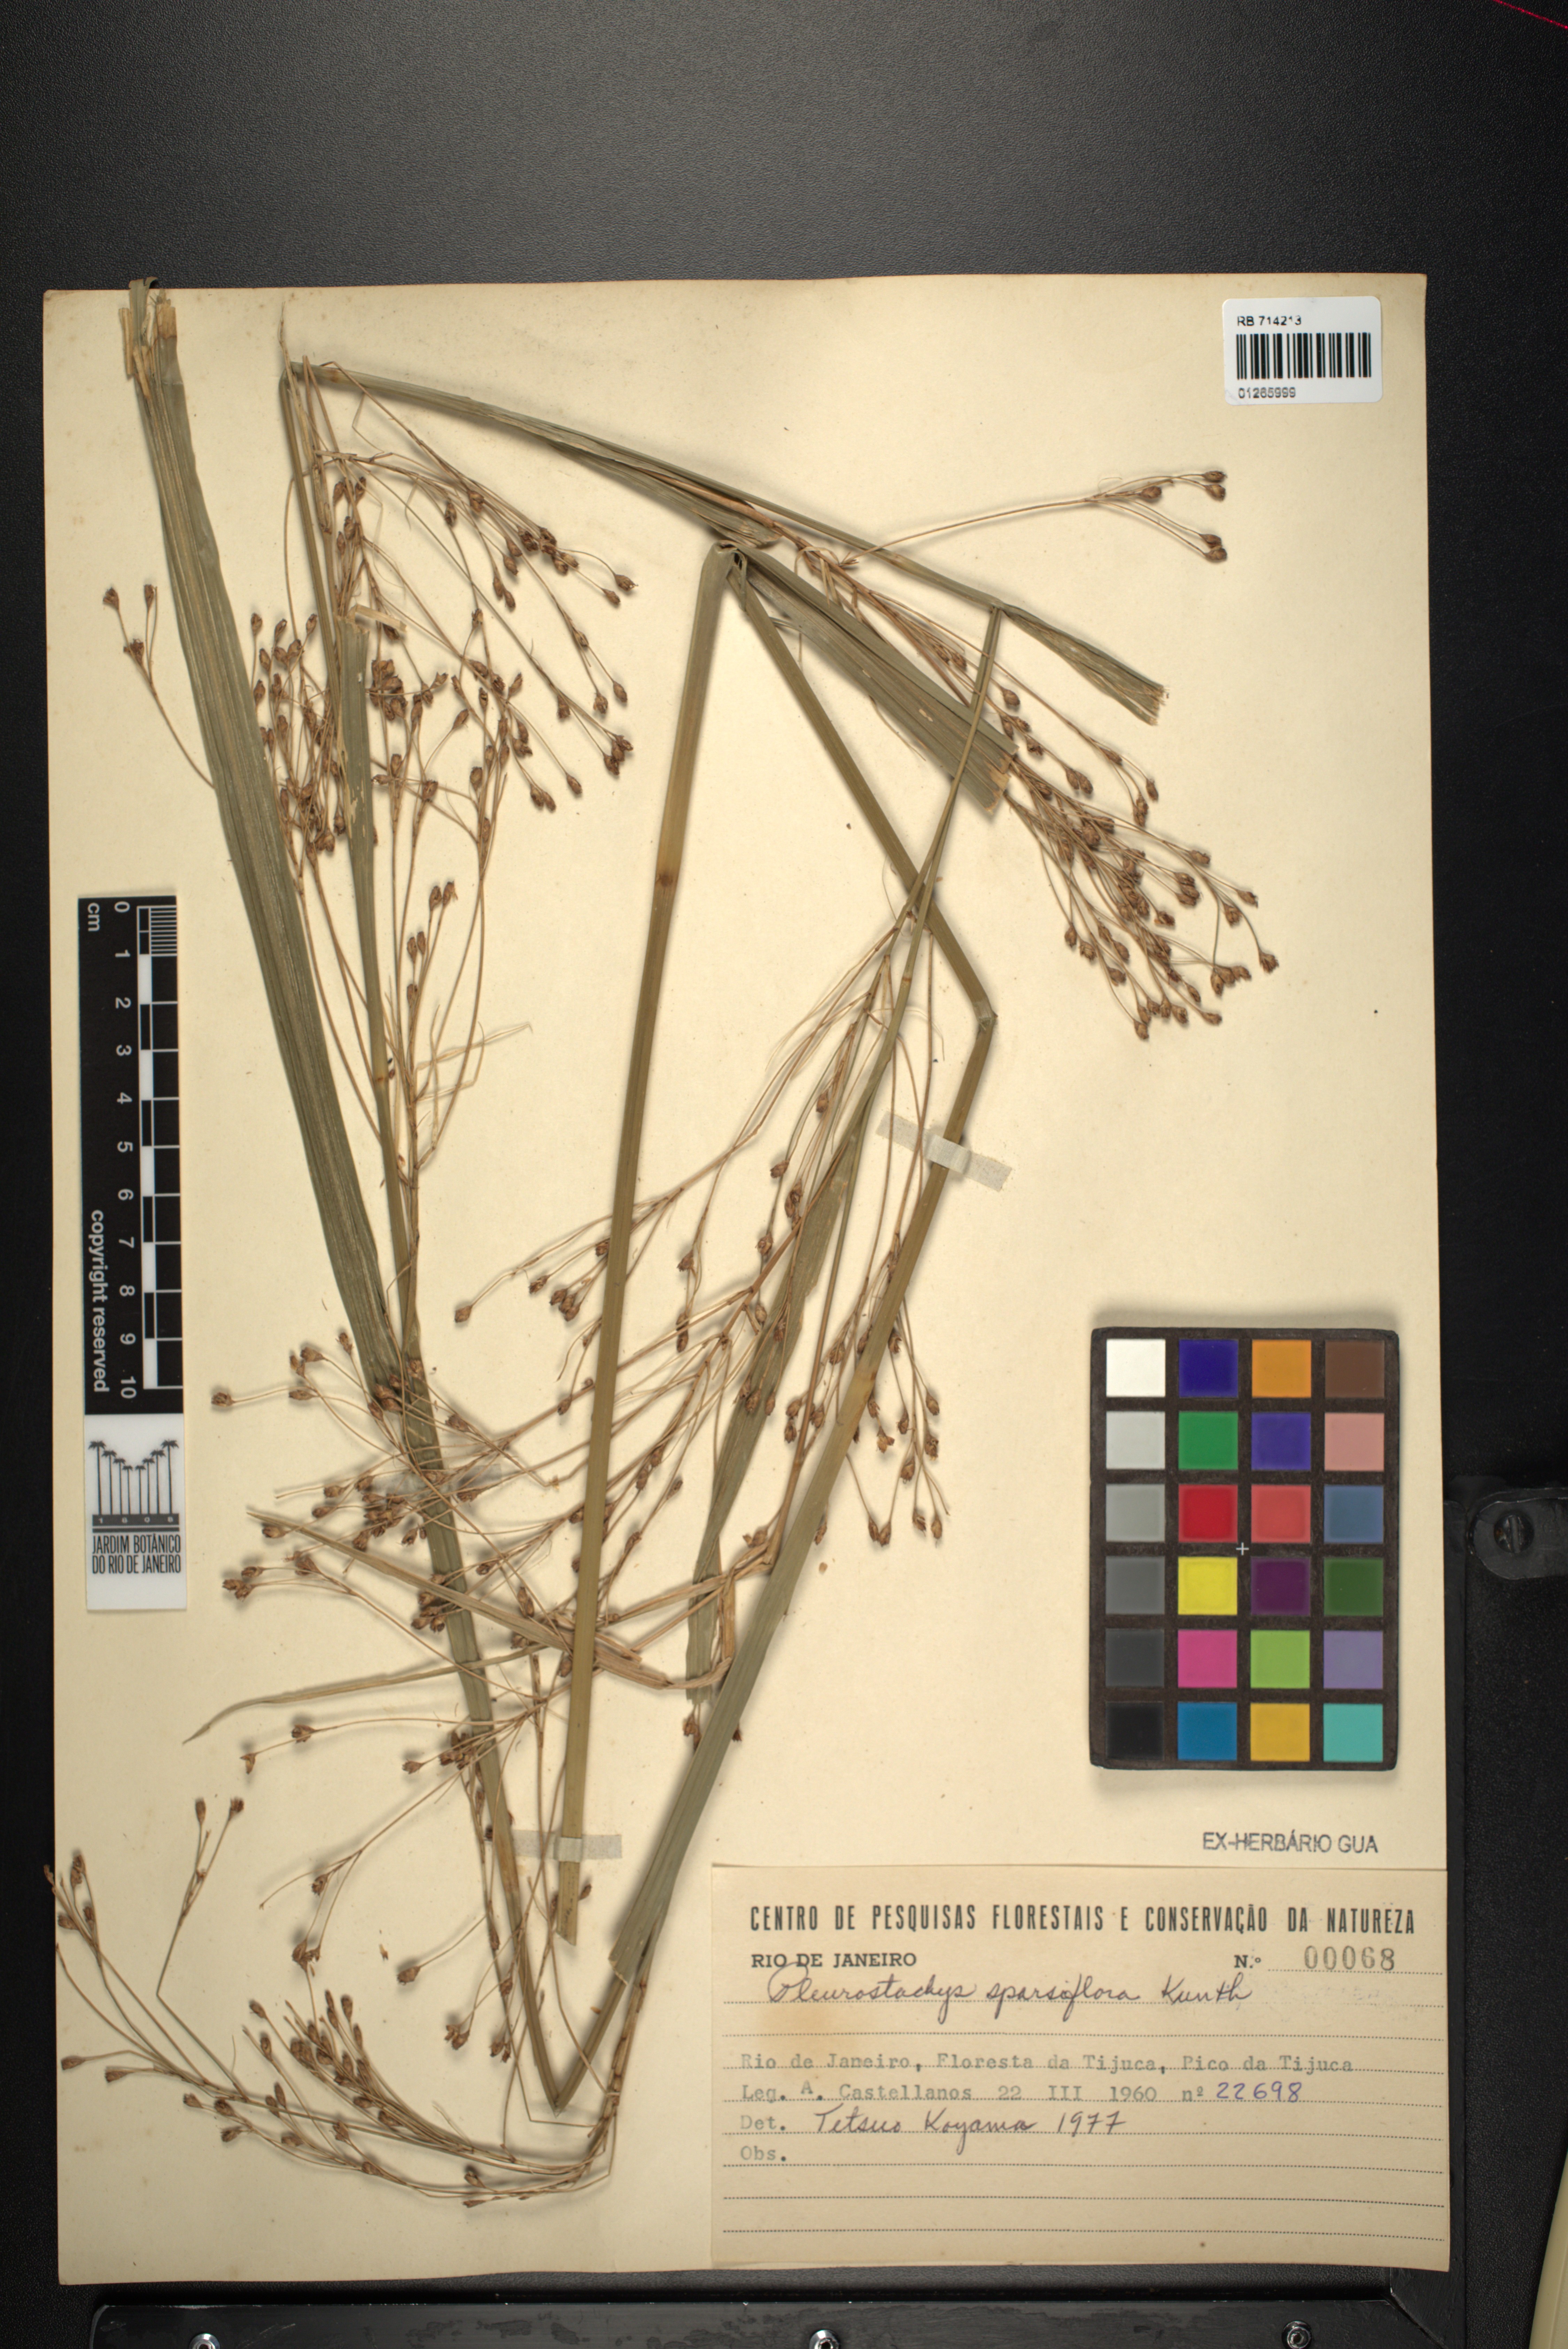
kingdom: Plantae
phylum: Tracheophyta
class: Liliopsida
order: Poales
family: Cyperaceae
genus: Rhynchospora
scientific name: Rhynchospora sparsiflora
